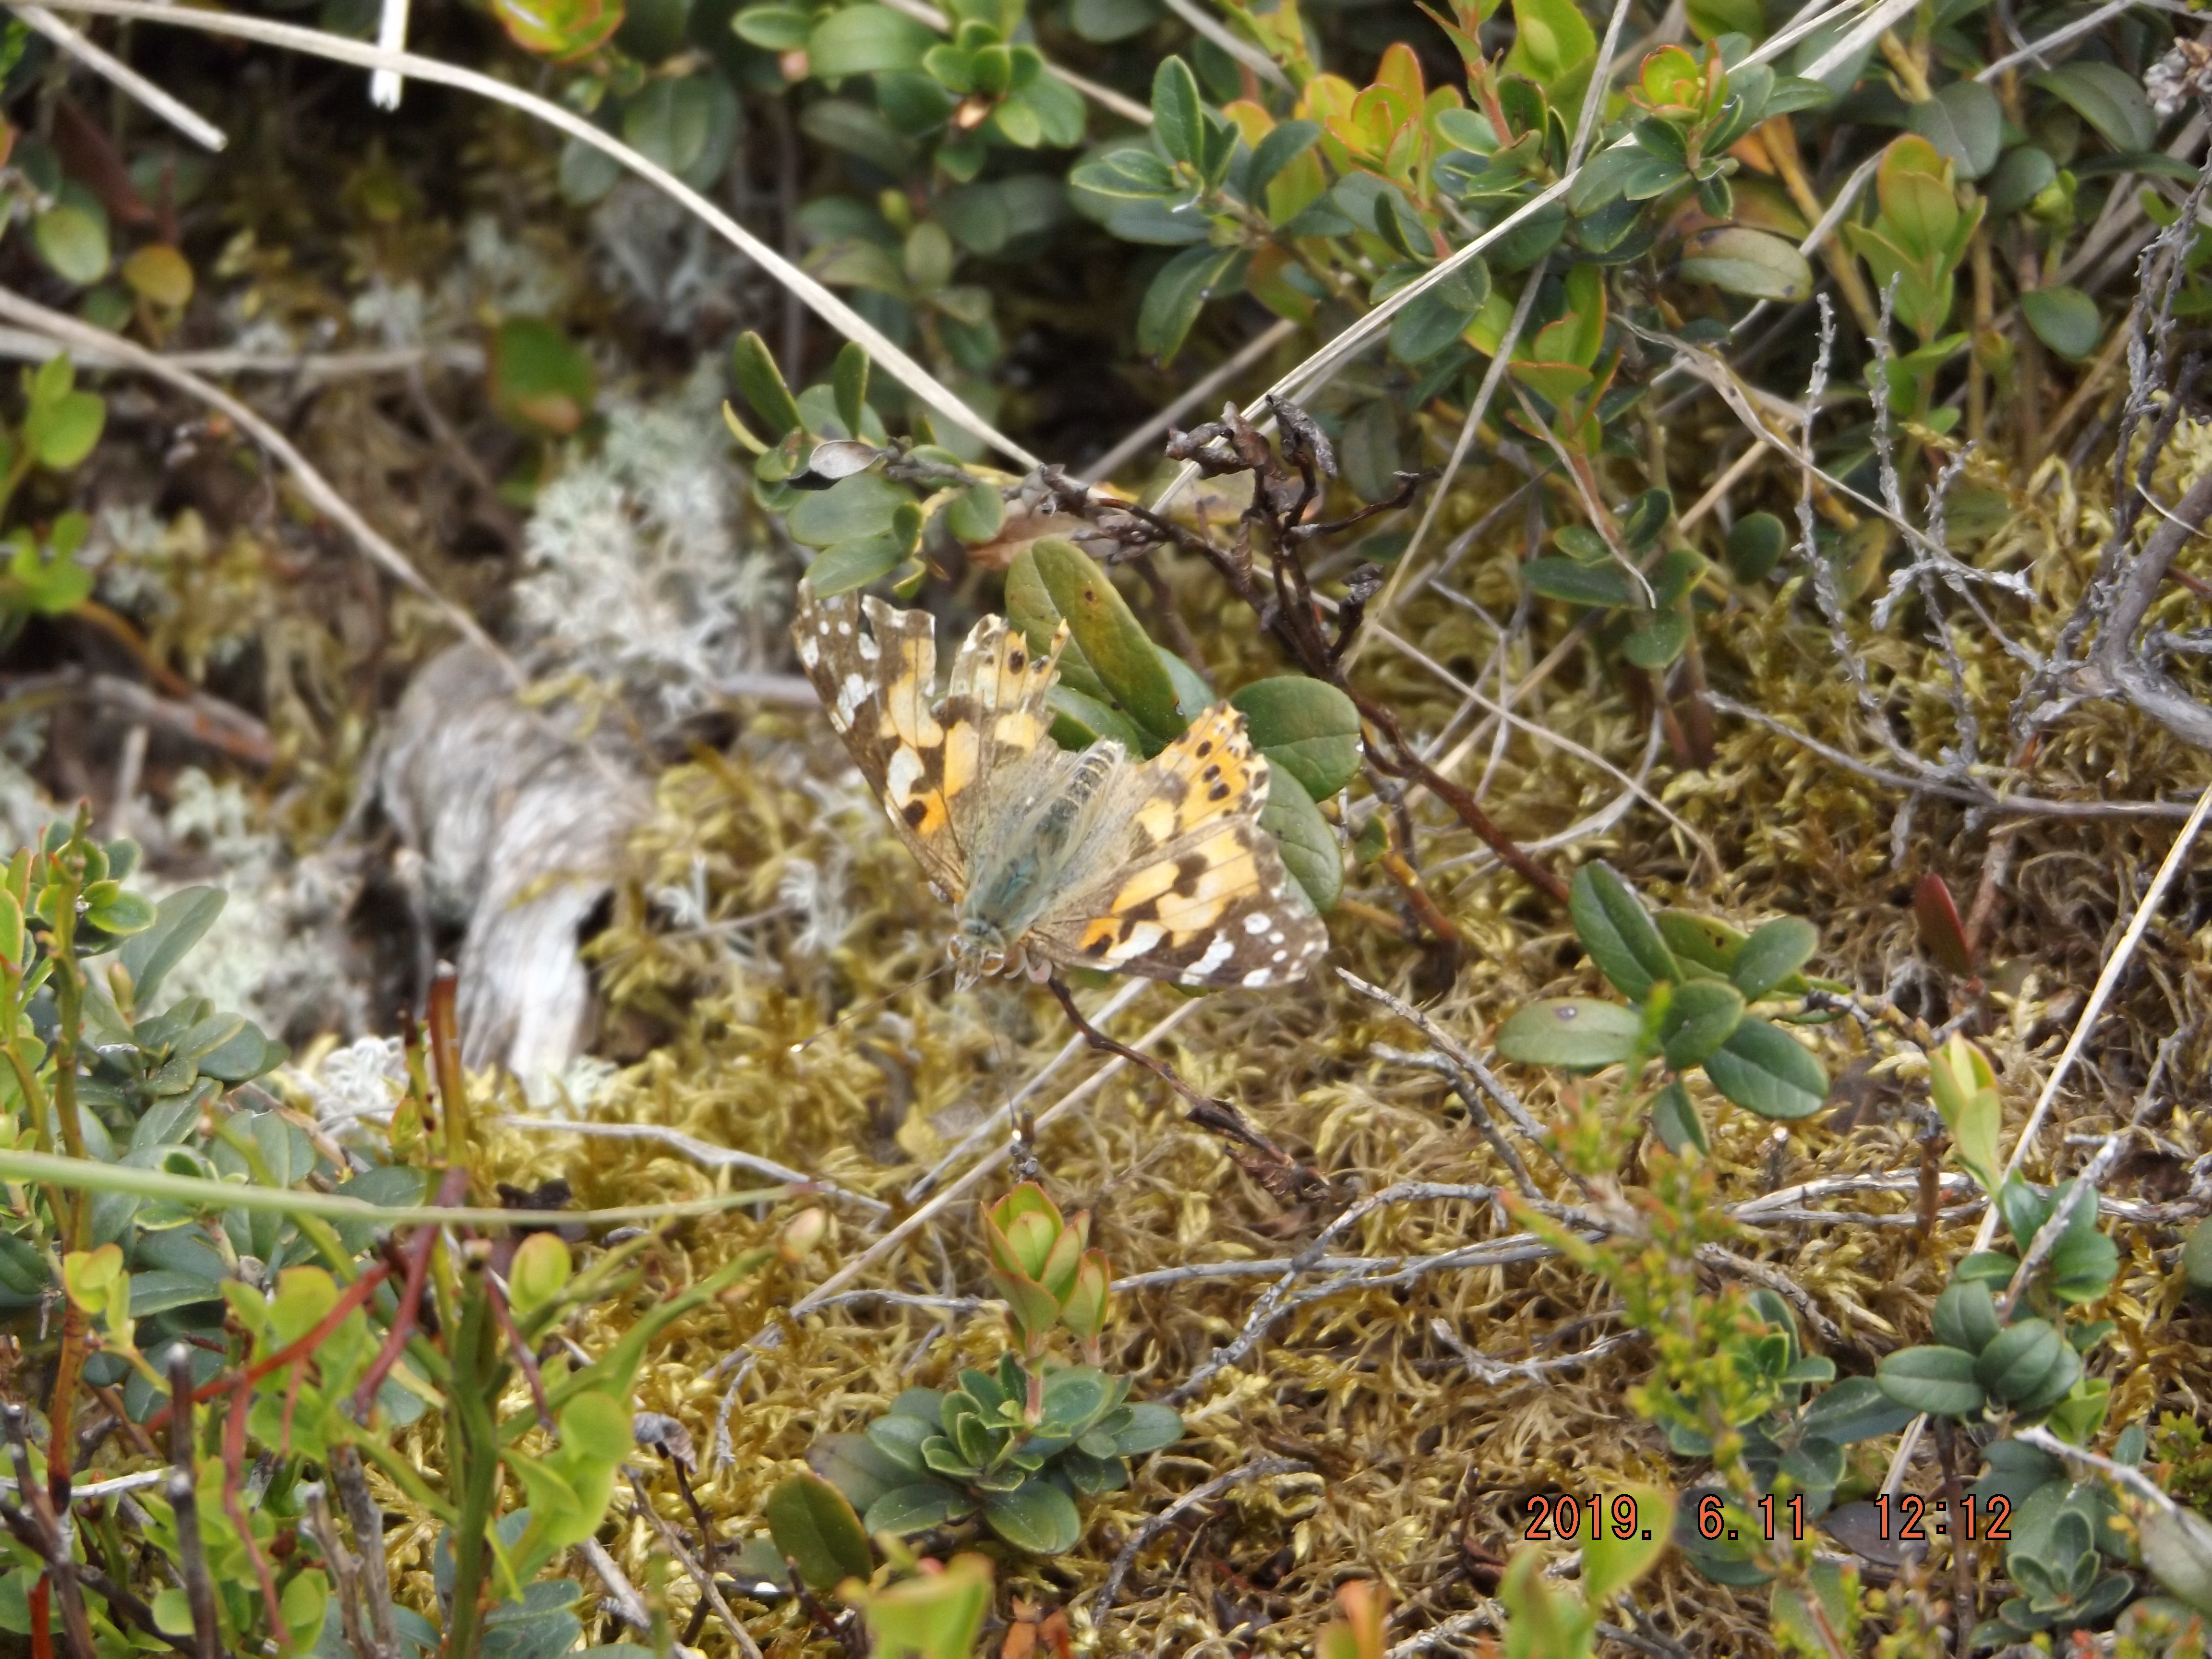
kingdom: Animalia
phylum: Arthropoda
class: Insecta
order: Lepidoptera
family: Nymphalidae
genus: Vanessa
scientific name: Vanessa cardui
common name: Painted lady
